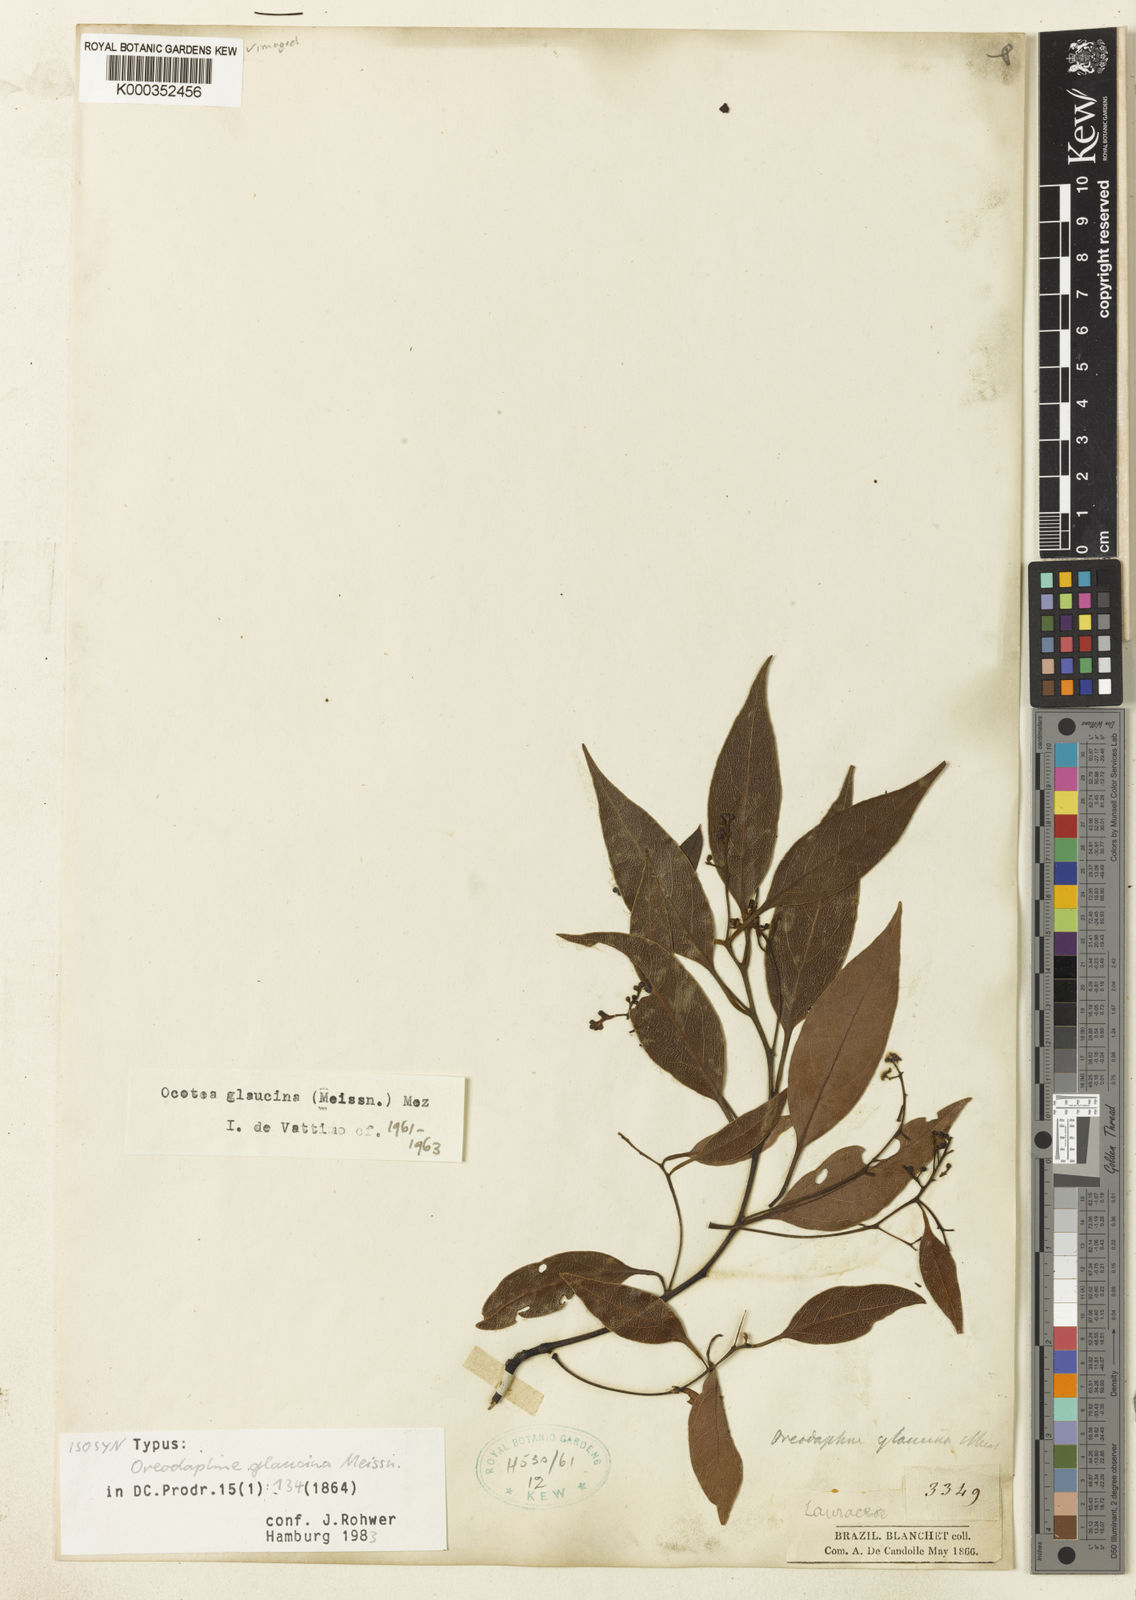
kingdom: Plantae
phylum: Tracheophyta
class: Magnoliopsida
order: Laurales
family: Lauraceae
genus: Mespilodaphne
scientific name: Mespilodaphne notata
